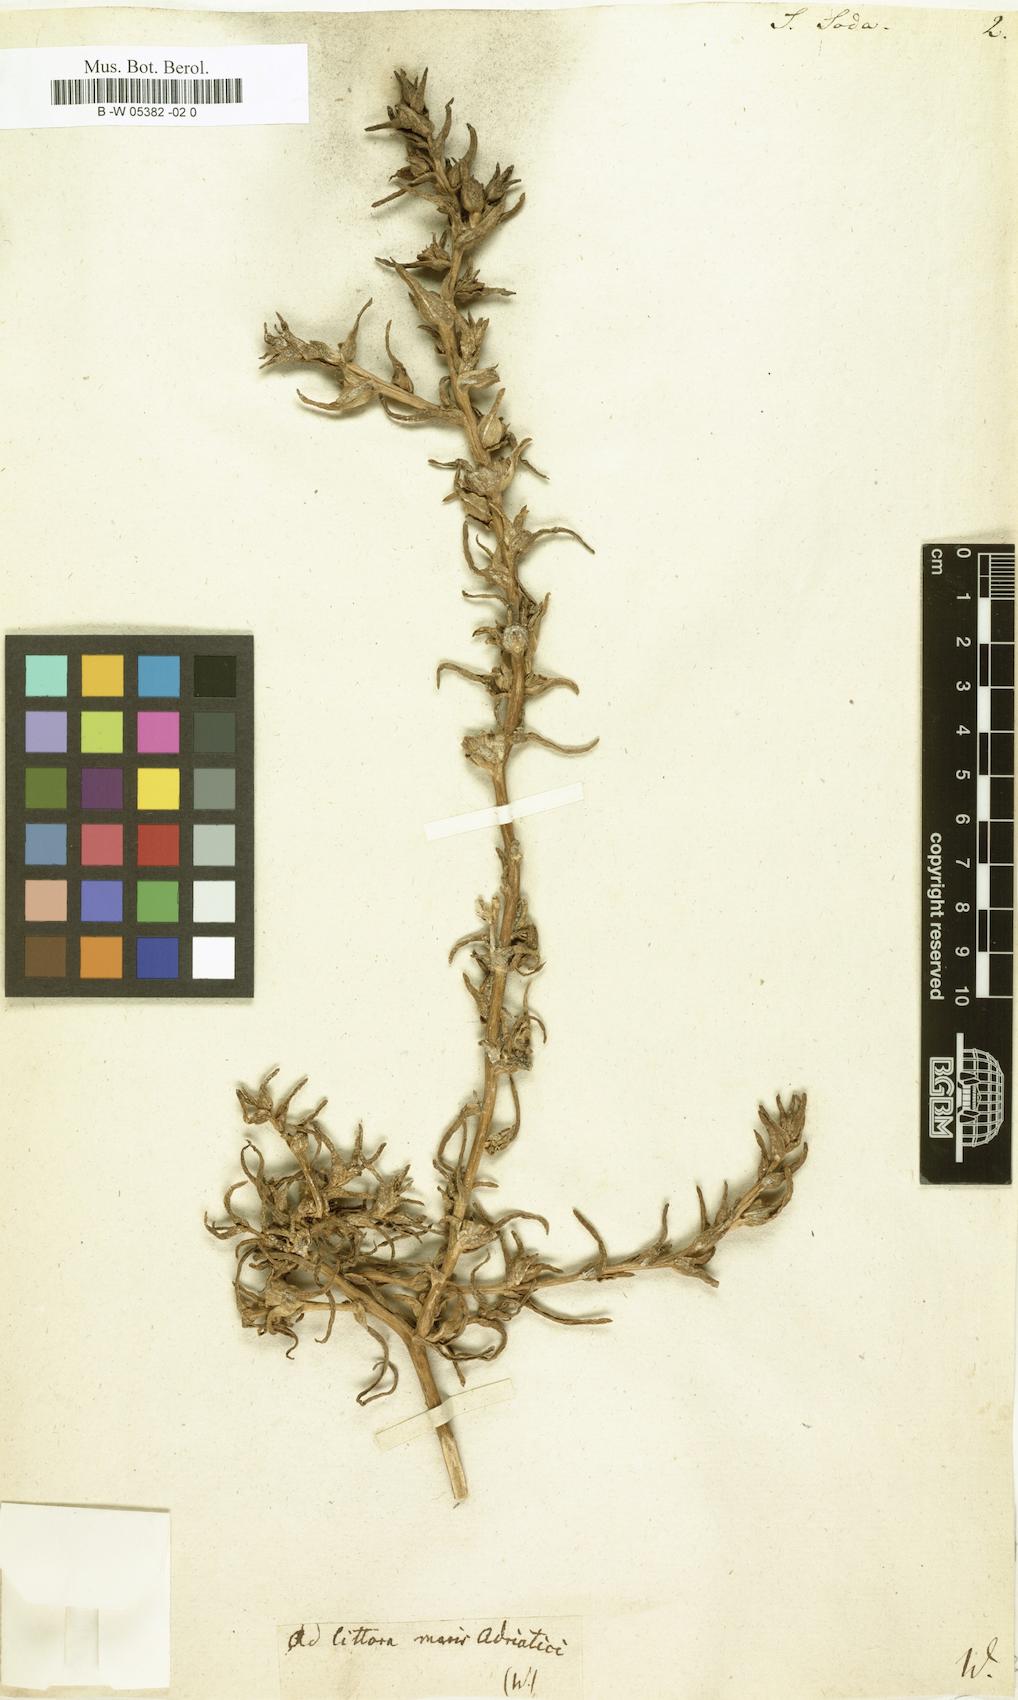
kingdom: Plantae
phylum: Tracheophyta
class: Magnoliopsida
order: Caryophyllales
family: Amaranthaceae
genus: Soda
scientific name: Soda inermis
